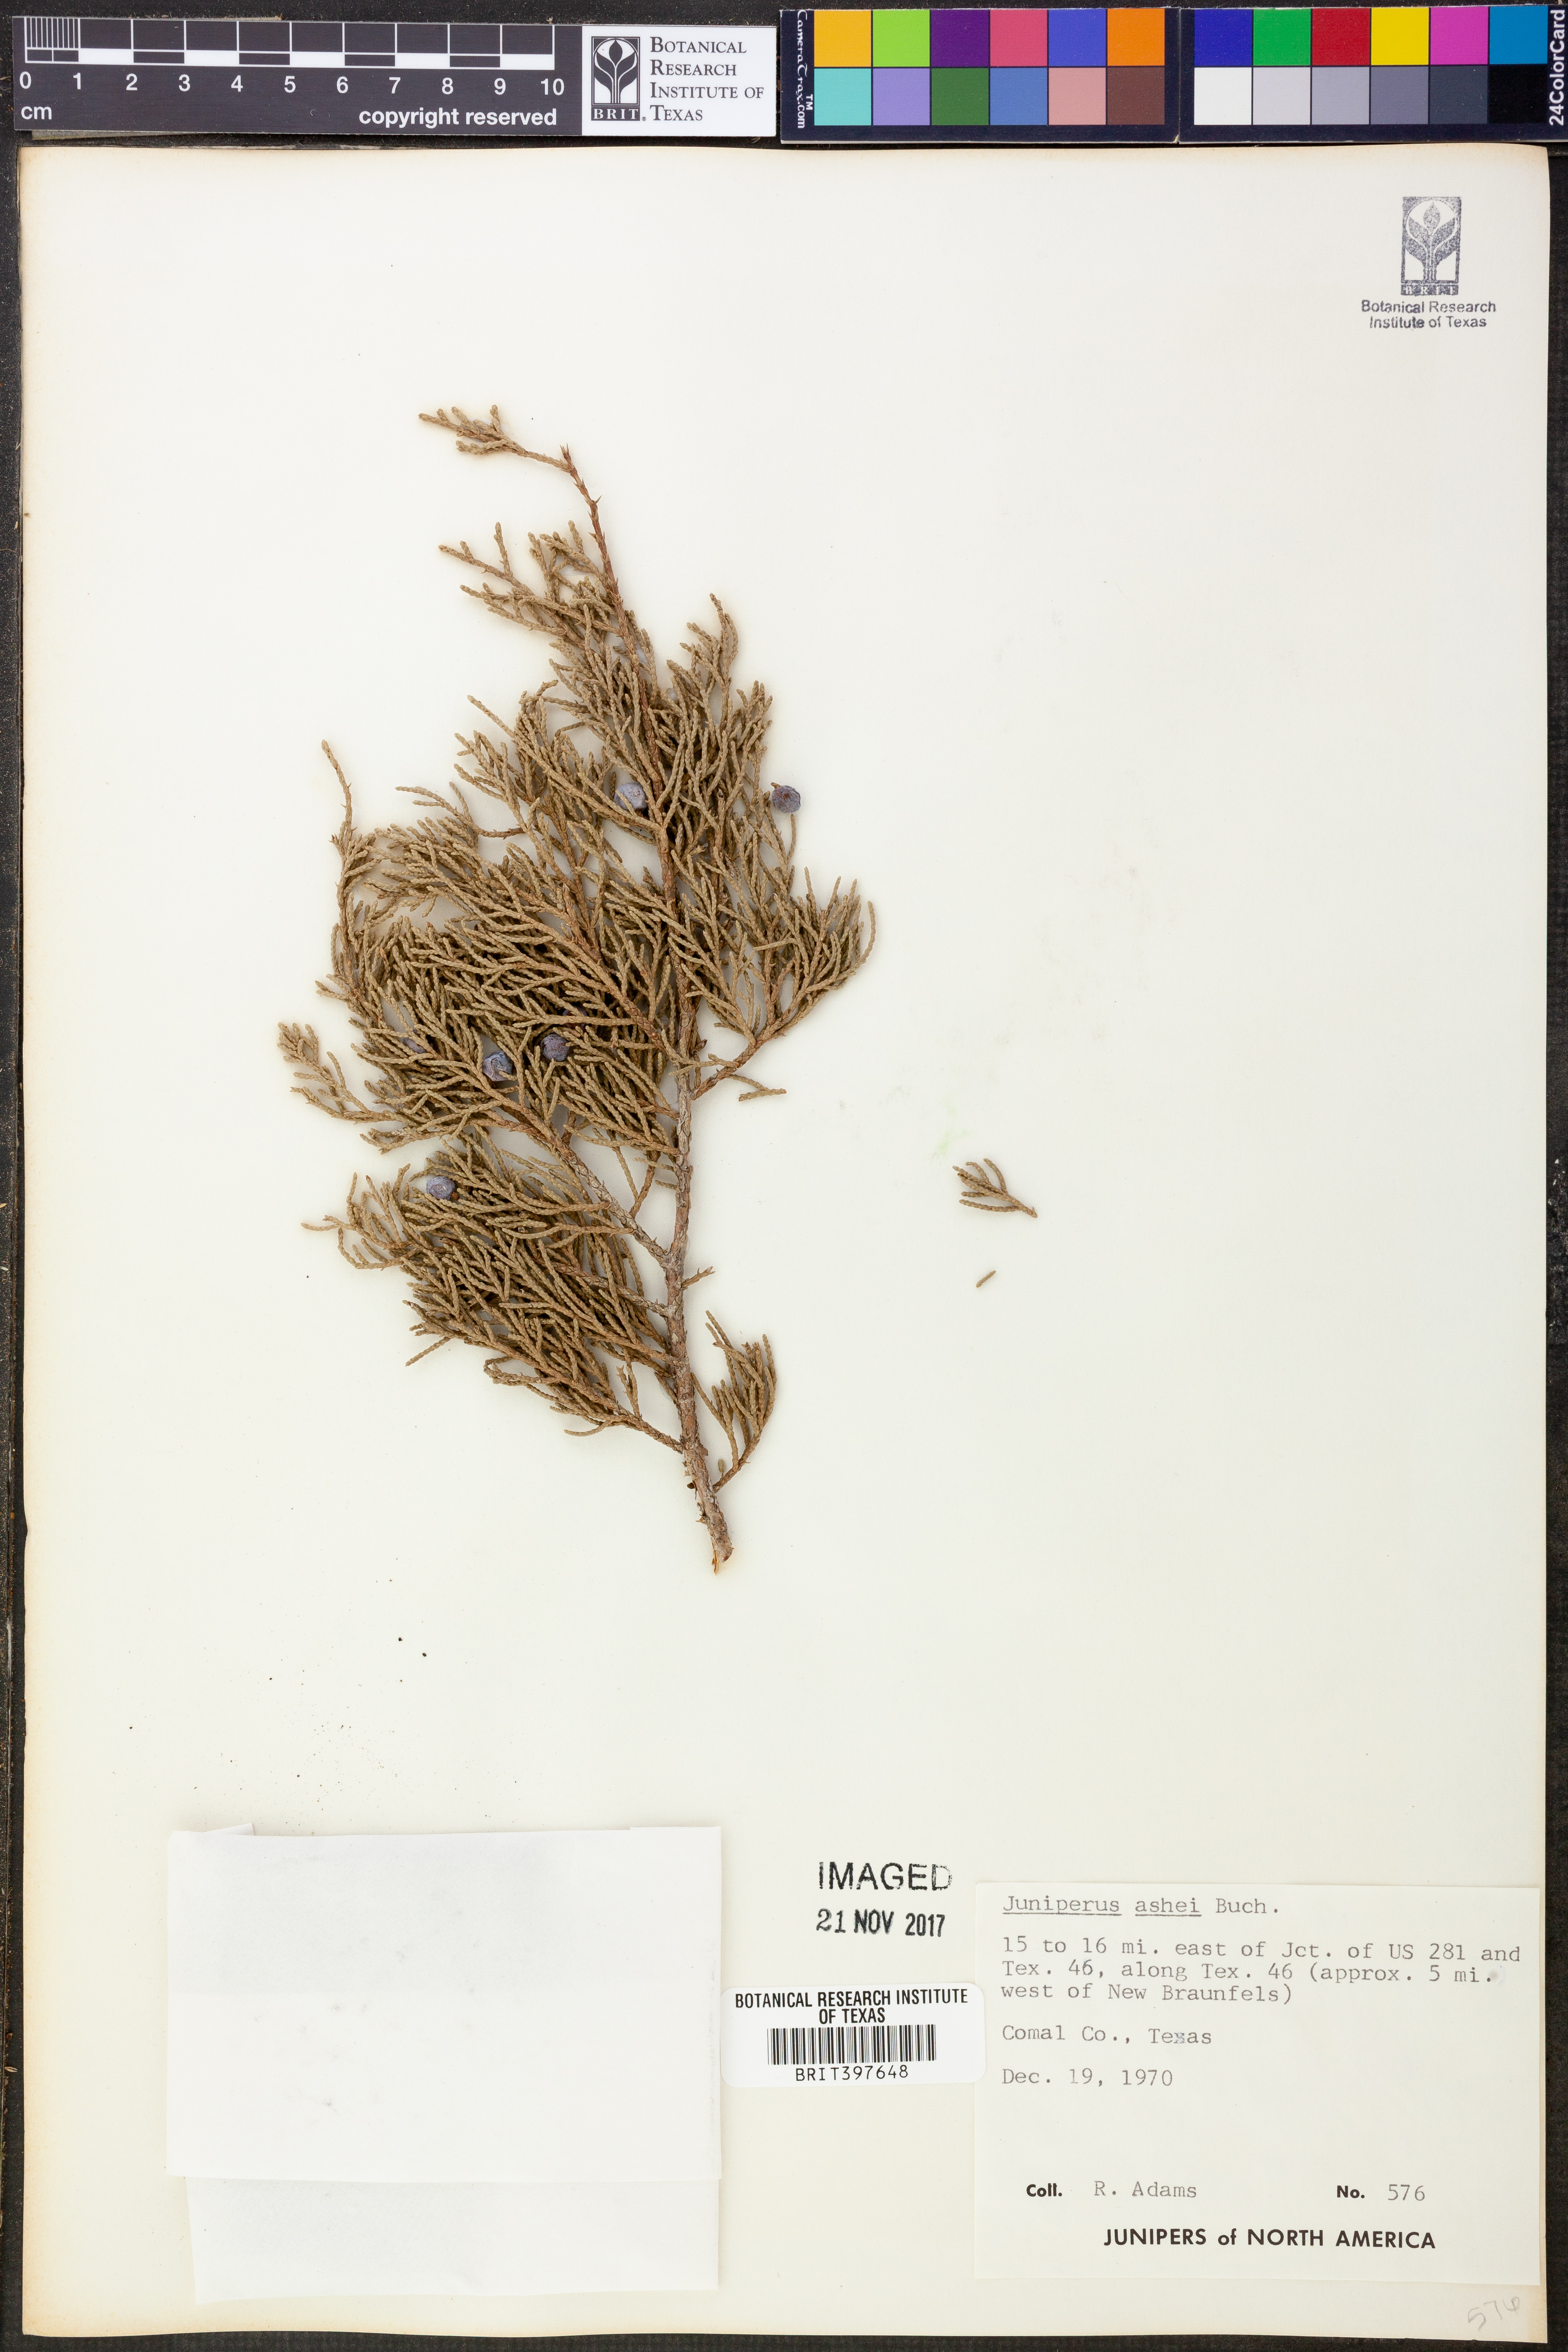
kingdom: Plantae
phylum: Tracheophyta
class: Pinopsida
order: Pinales
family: Cupressaceae
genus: Juniperus
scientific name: Juniperus ashei
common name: Mexican juniper
